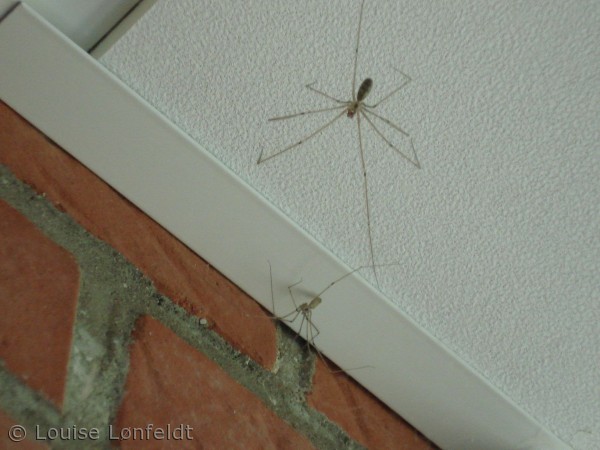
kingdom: Animalia
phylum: Arthropoda
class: Arachnida
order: Araneae
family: Pholcidae
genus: Pholcus
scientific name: Pholcus phalangioides
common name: Mejeredderkop
